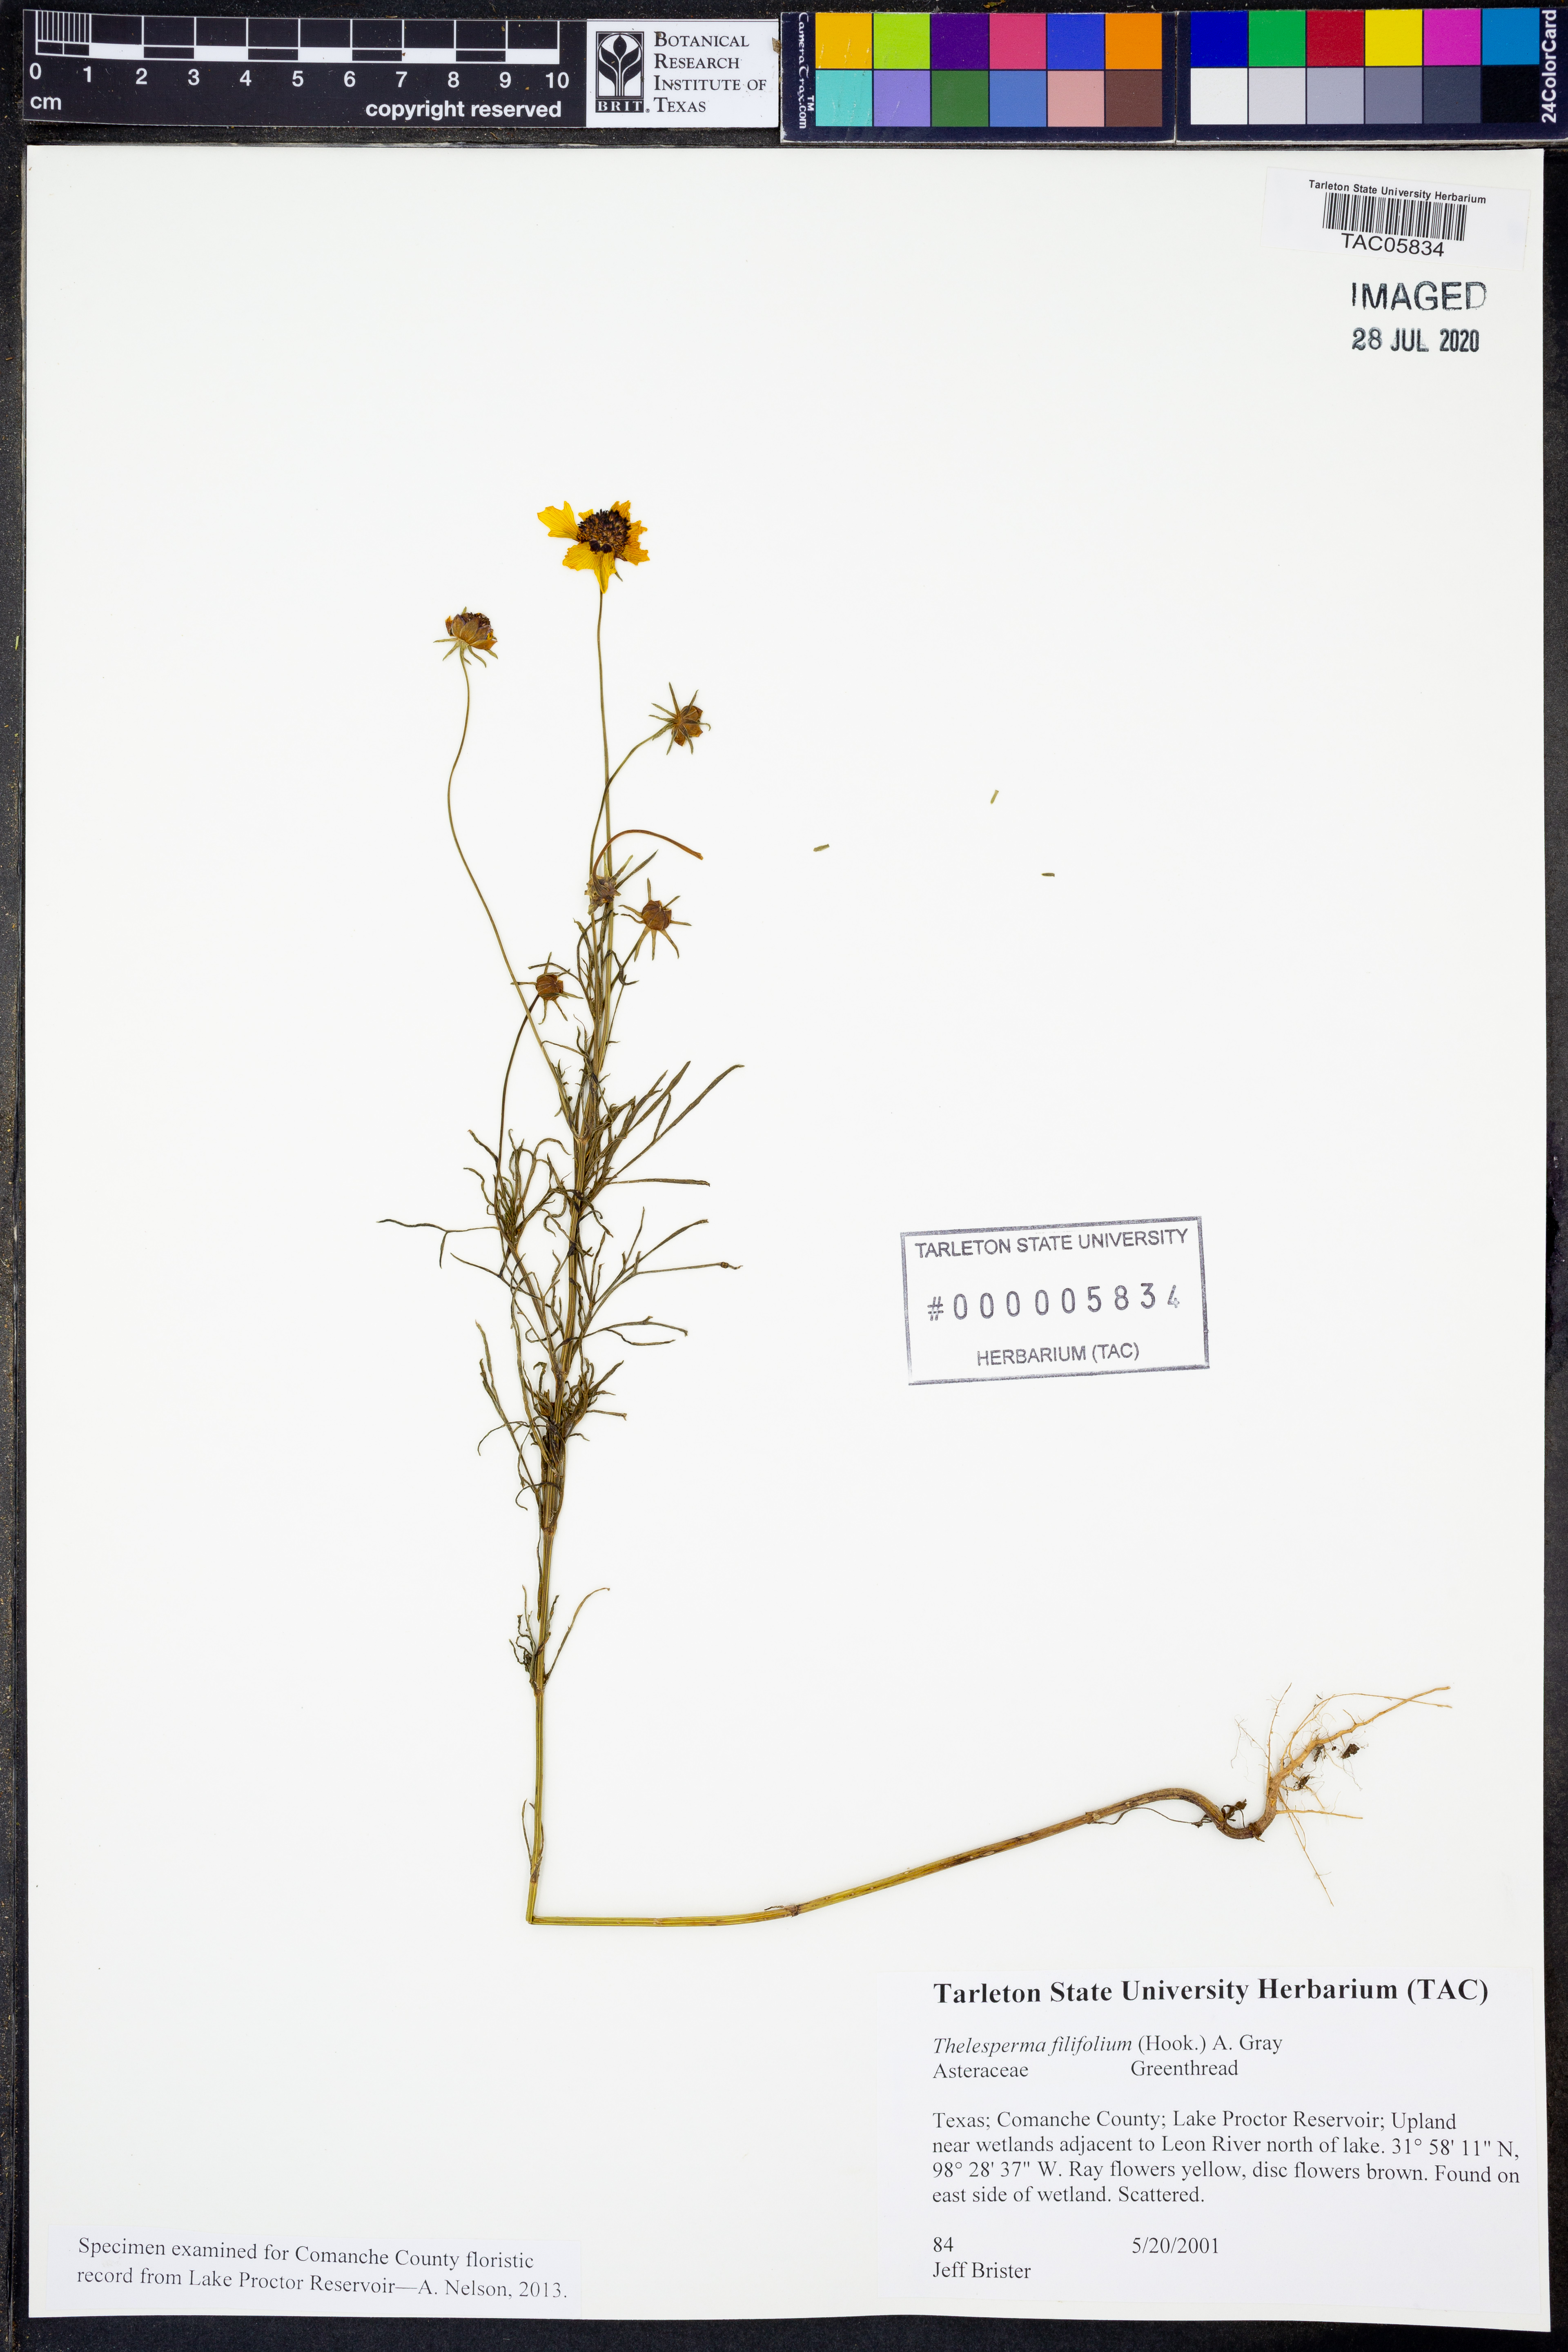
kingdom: Plantae
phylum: Tracheophyta
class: Magnoliopsida
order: Asterales
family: Asteraceae
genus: Thelesperma
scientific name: Thelesperma filifolium
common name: Stiff greenthread
